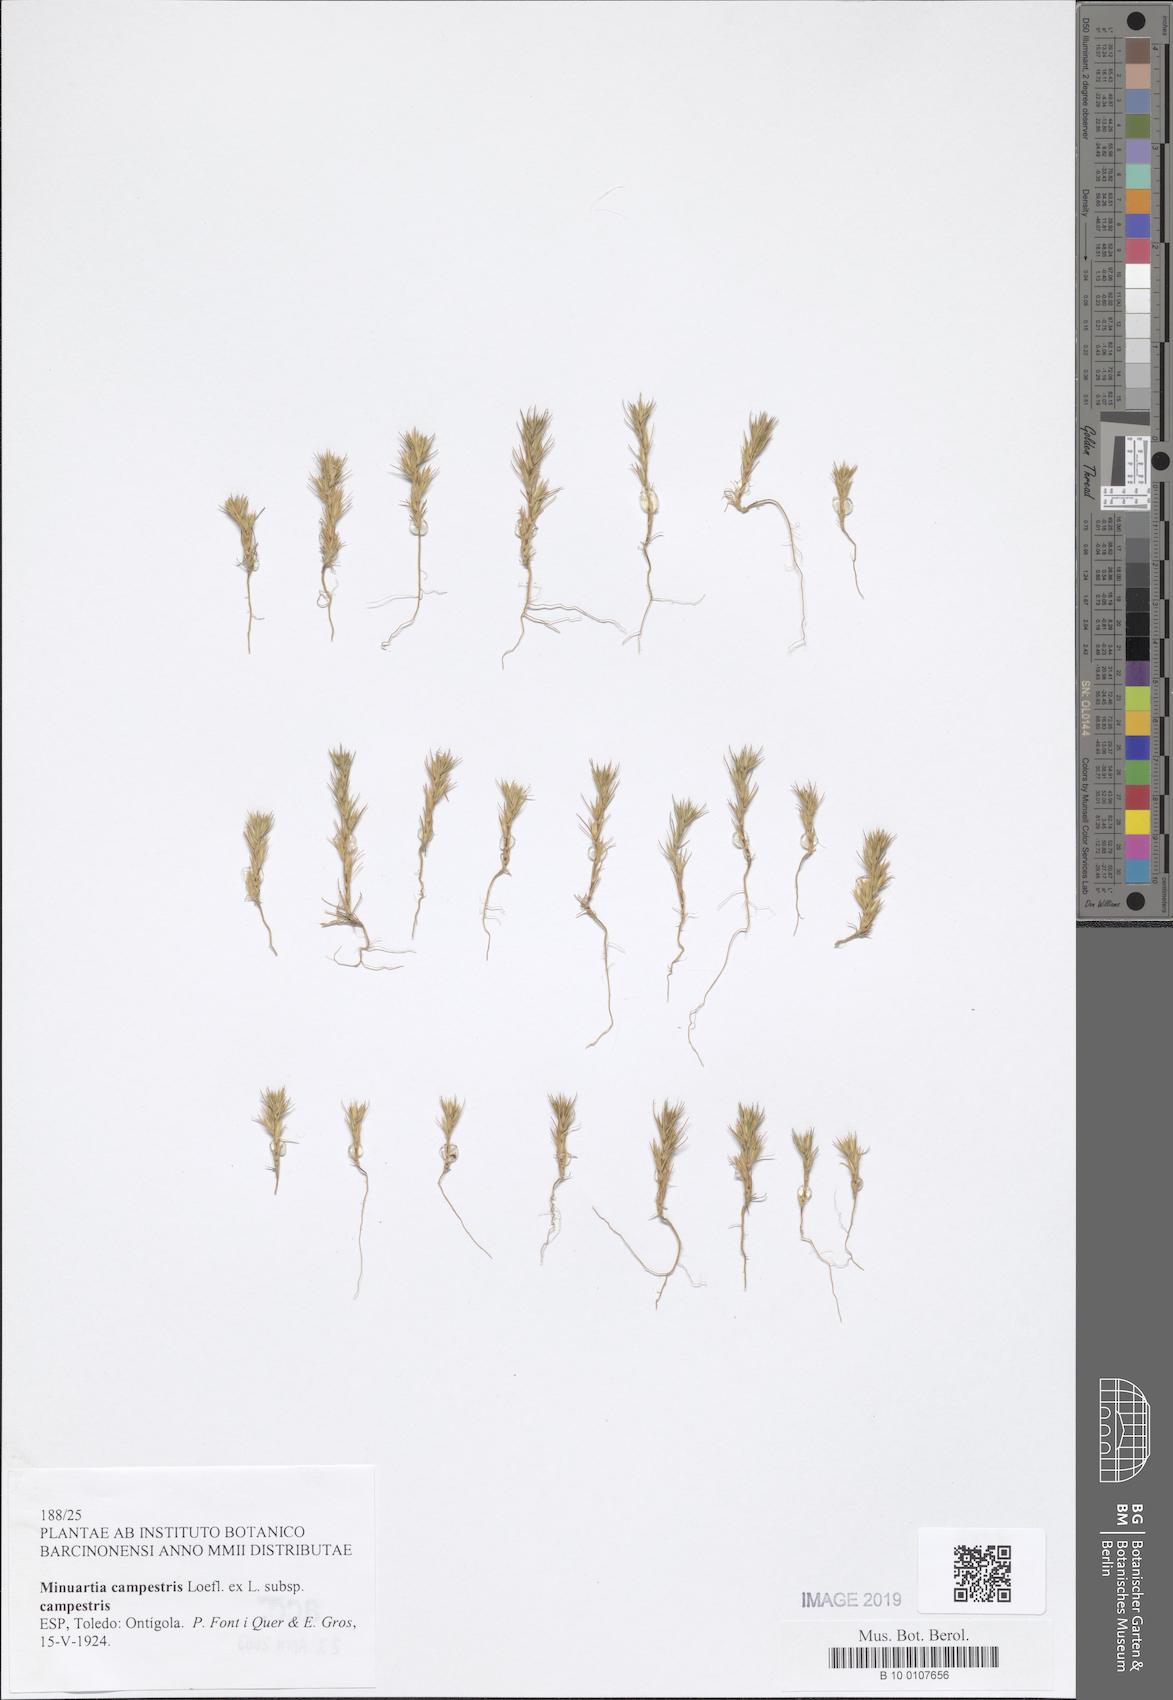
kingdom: Plantae
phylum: Tracheophyta
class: Magnoliopsida
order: Caryophyllales
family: Caryophyllaceae
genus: Minuartia
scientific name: Minuartia campestris
